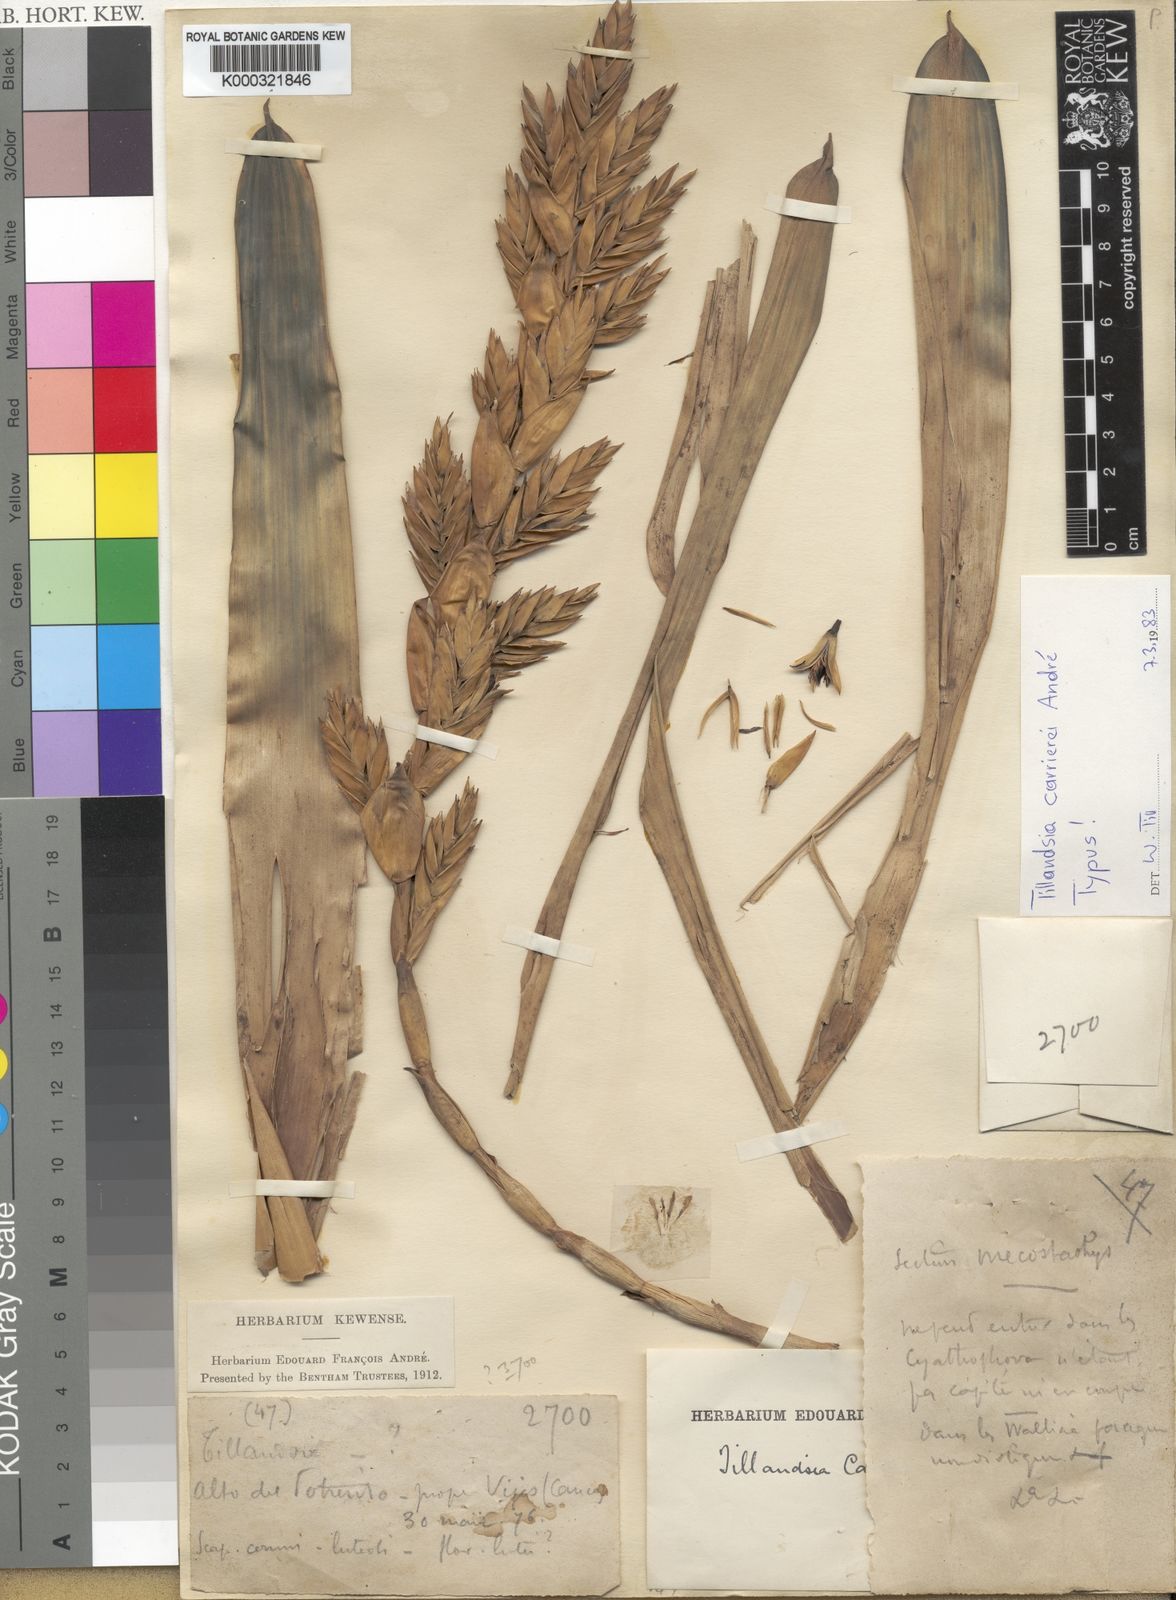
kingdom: Plantae
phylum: Tracheophyta
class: Liliopsida
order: Poales
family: Bromeliaceae
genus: Tillandsia
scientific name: Tillandsia
